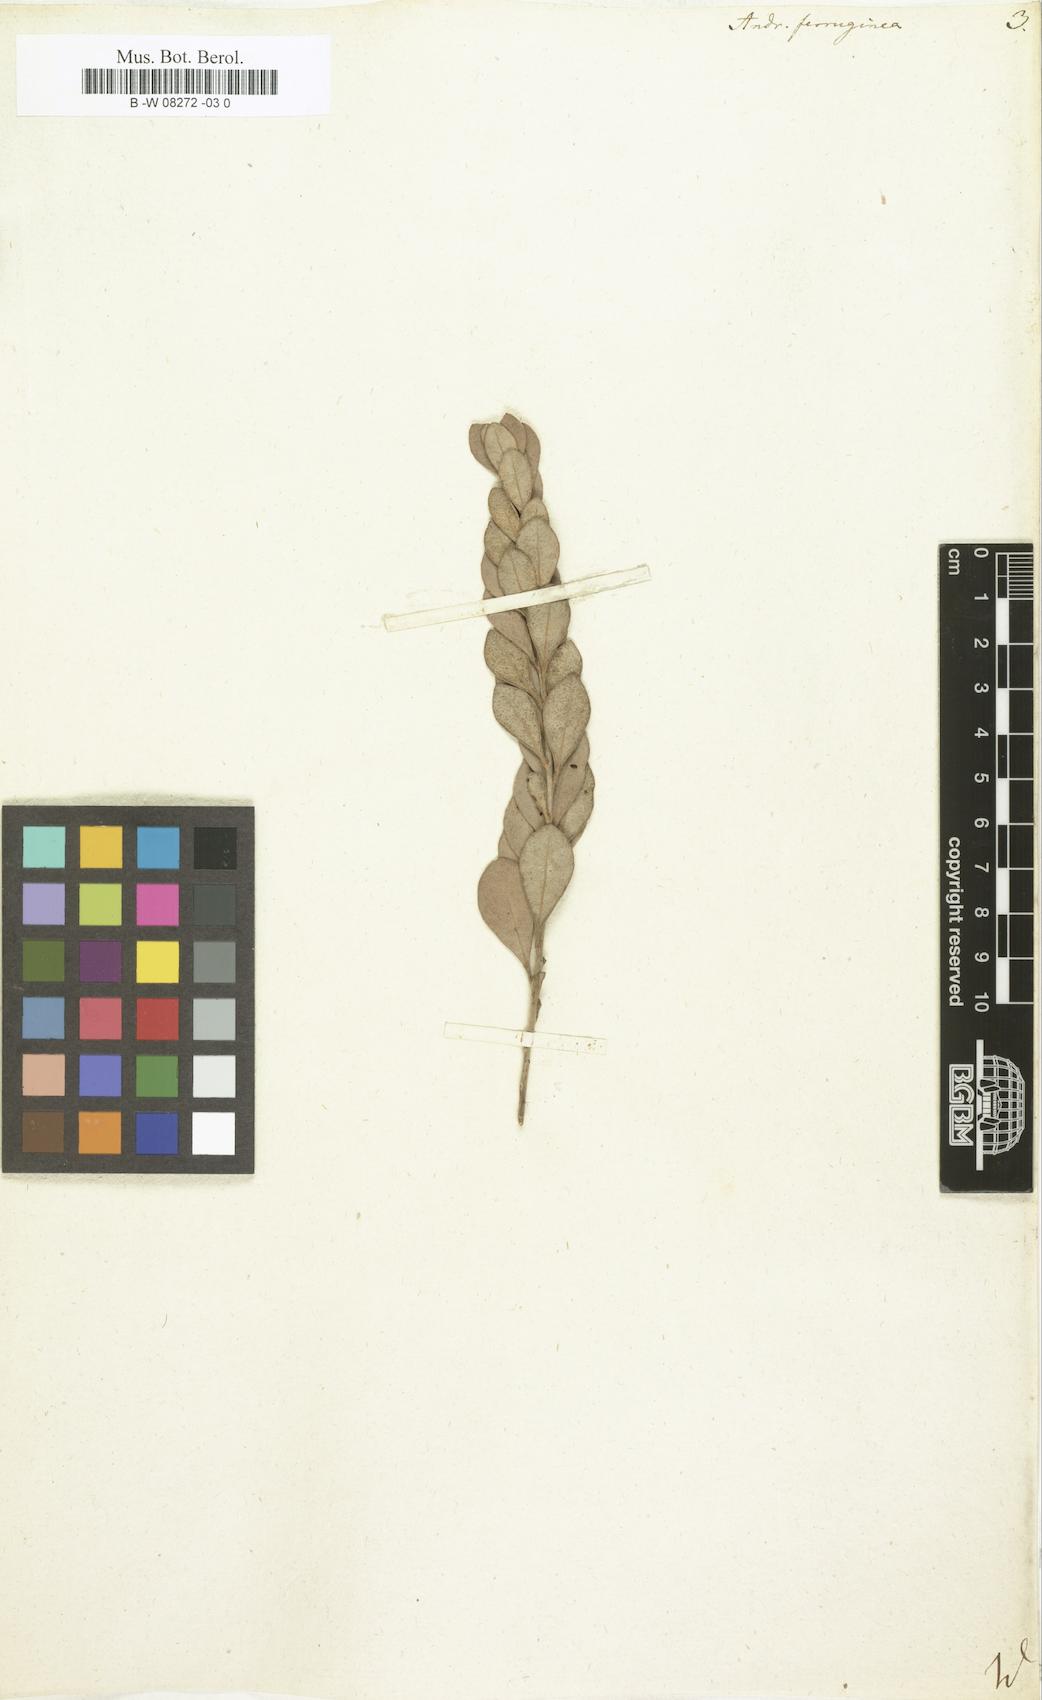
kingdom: Plantae
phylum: Tracheophyta
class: Magnoliopsida
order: Ericales
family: Ericaceae
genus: Lyonia
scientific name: Lyonia ferruginea
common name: Rusty lyonia
